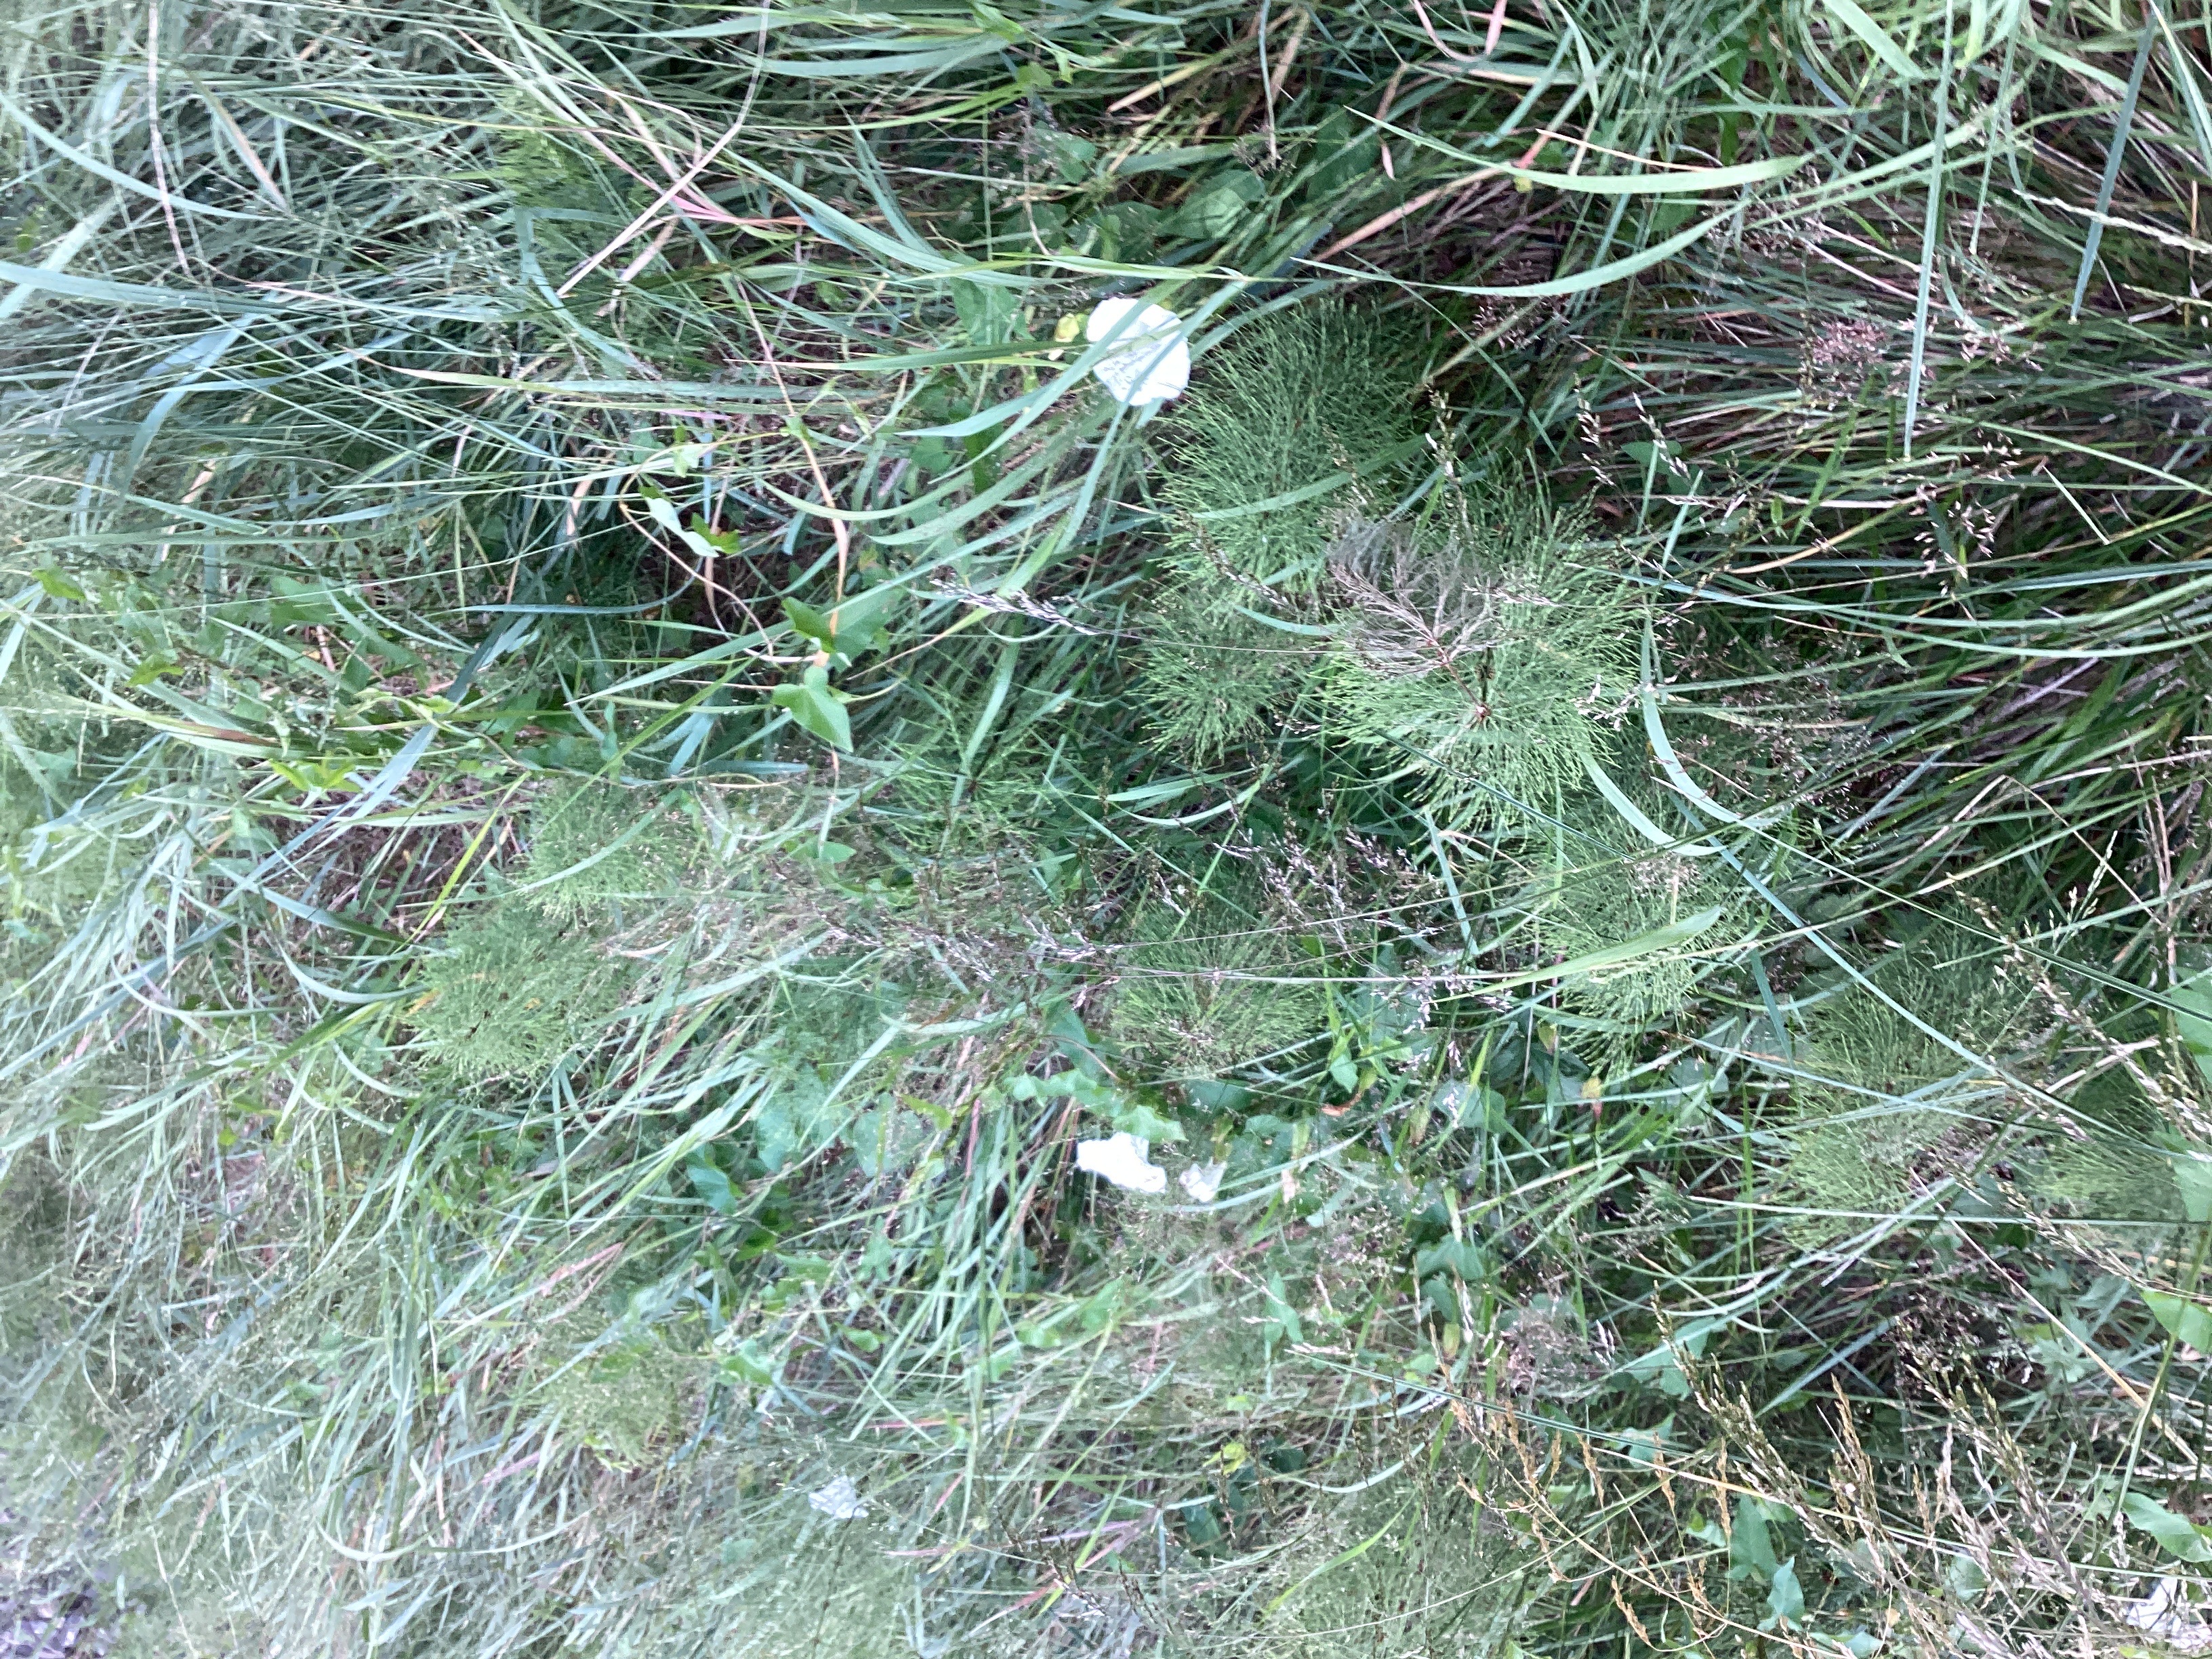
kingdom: Plantae
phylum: Tracheophyta
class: Magnoliopsida
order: Solanales
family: Convolvulaceae
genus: Calystegia
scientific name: Calystegia sepium
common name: prydstrandvindel
